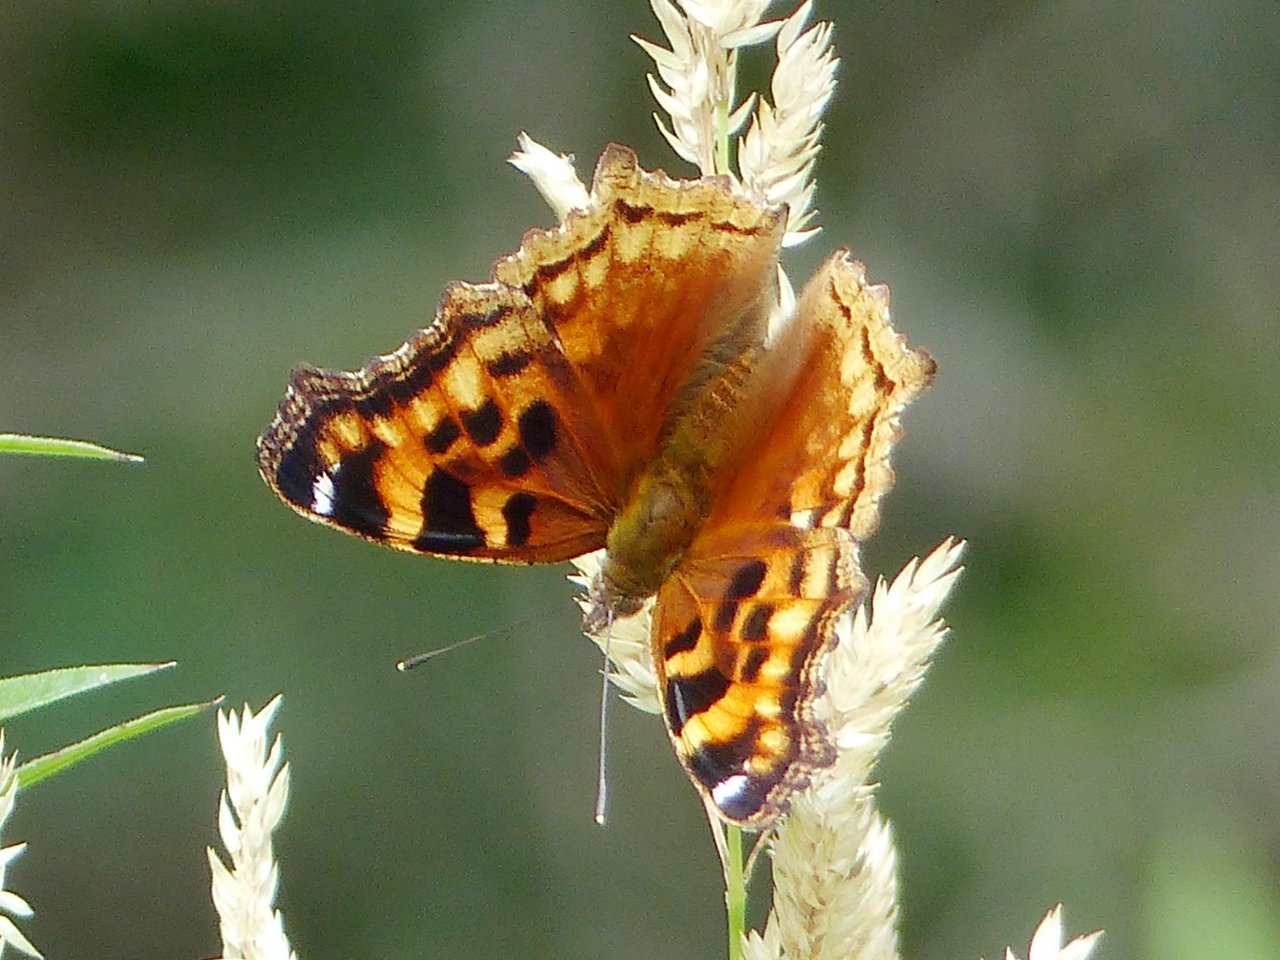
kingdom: Animalia
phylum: Arthropoda
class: Insecta
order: Lepidoptera
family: Nymphalidae
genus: Polygonia
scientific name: Polygonia vaualbum
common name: Compton Tortoiseshell
